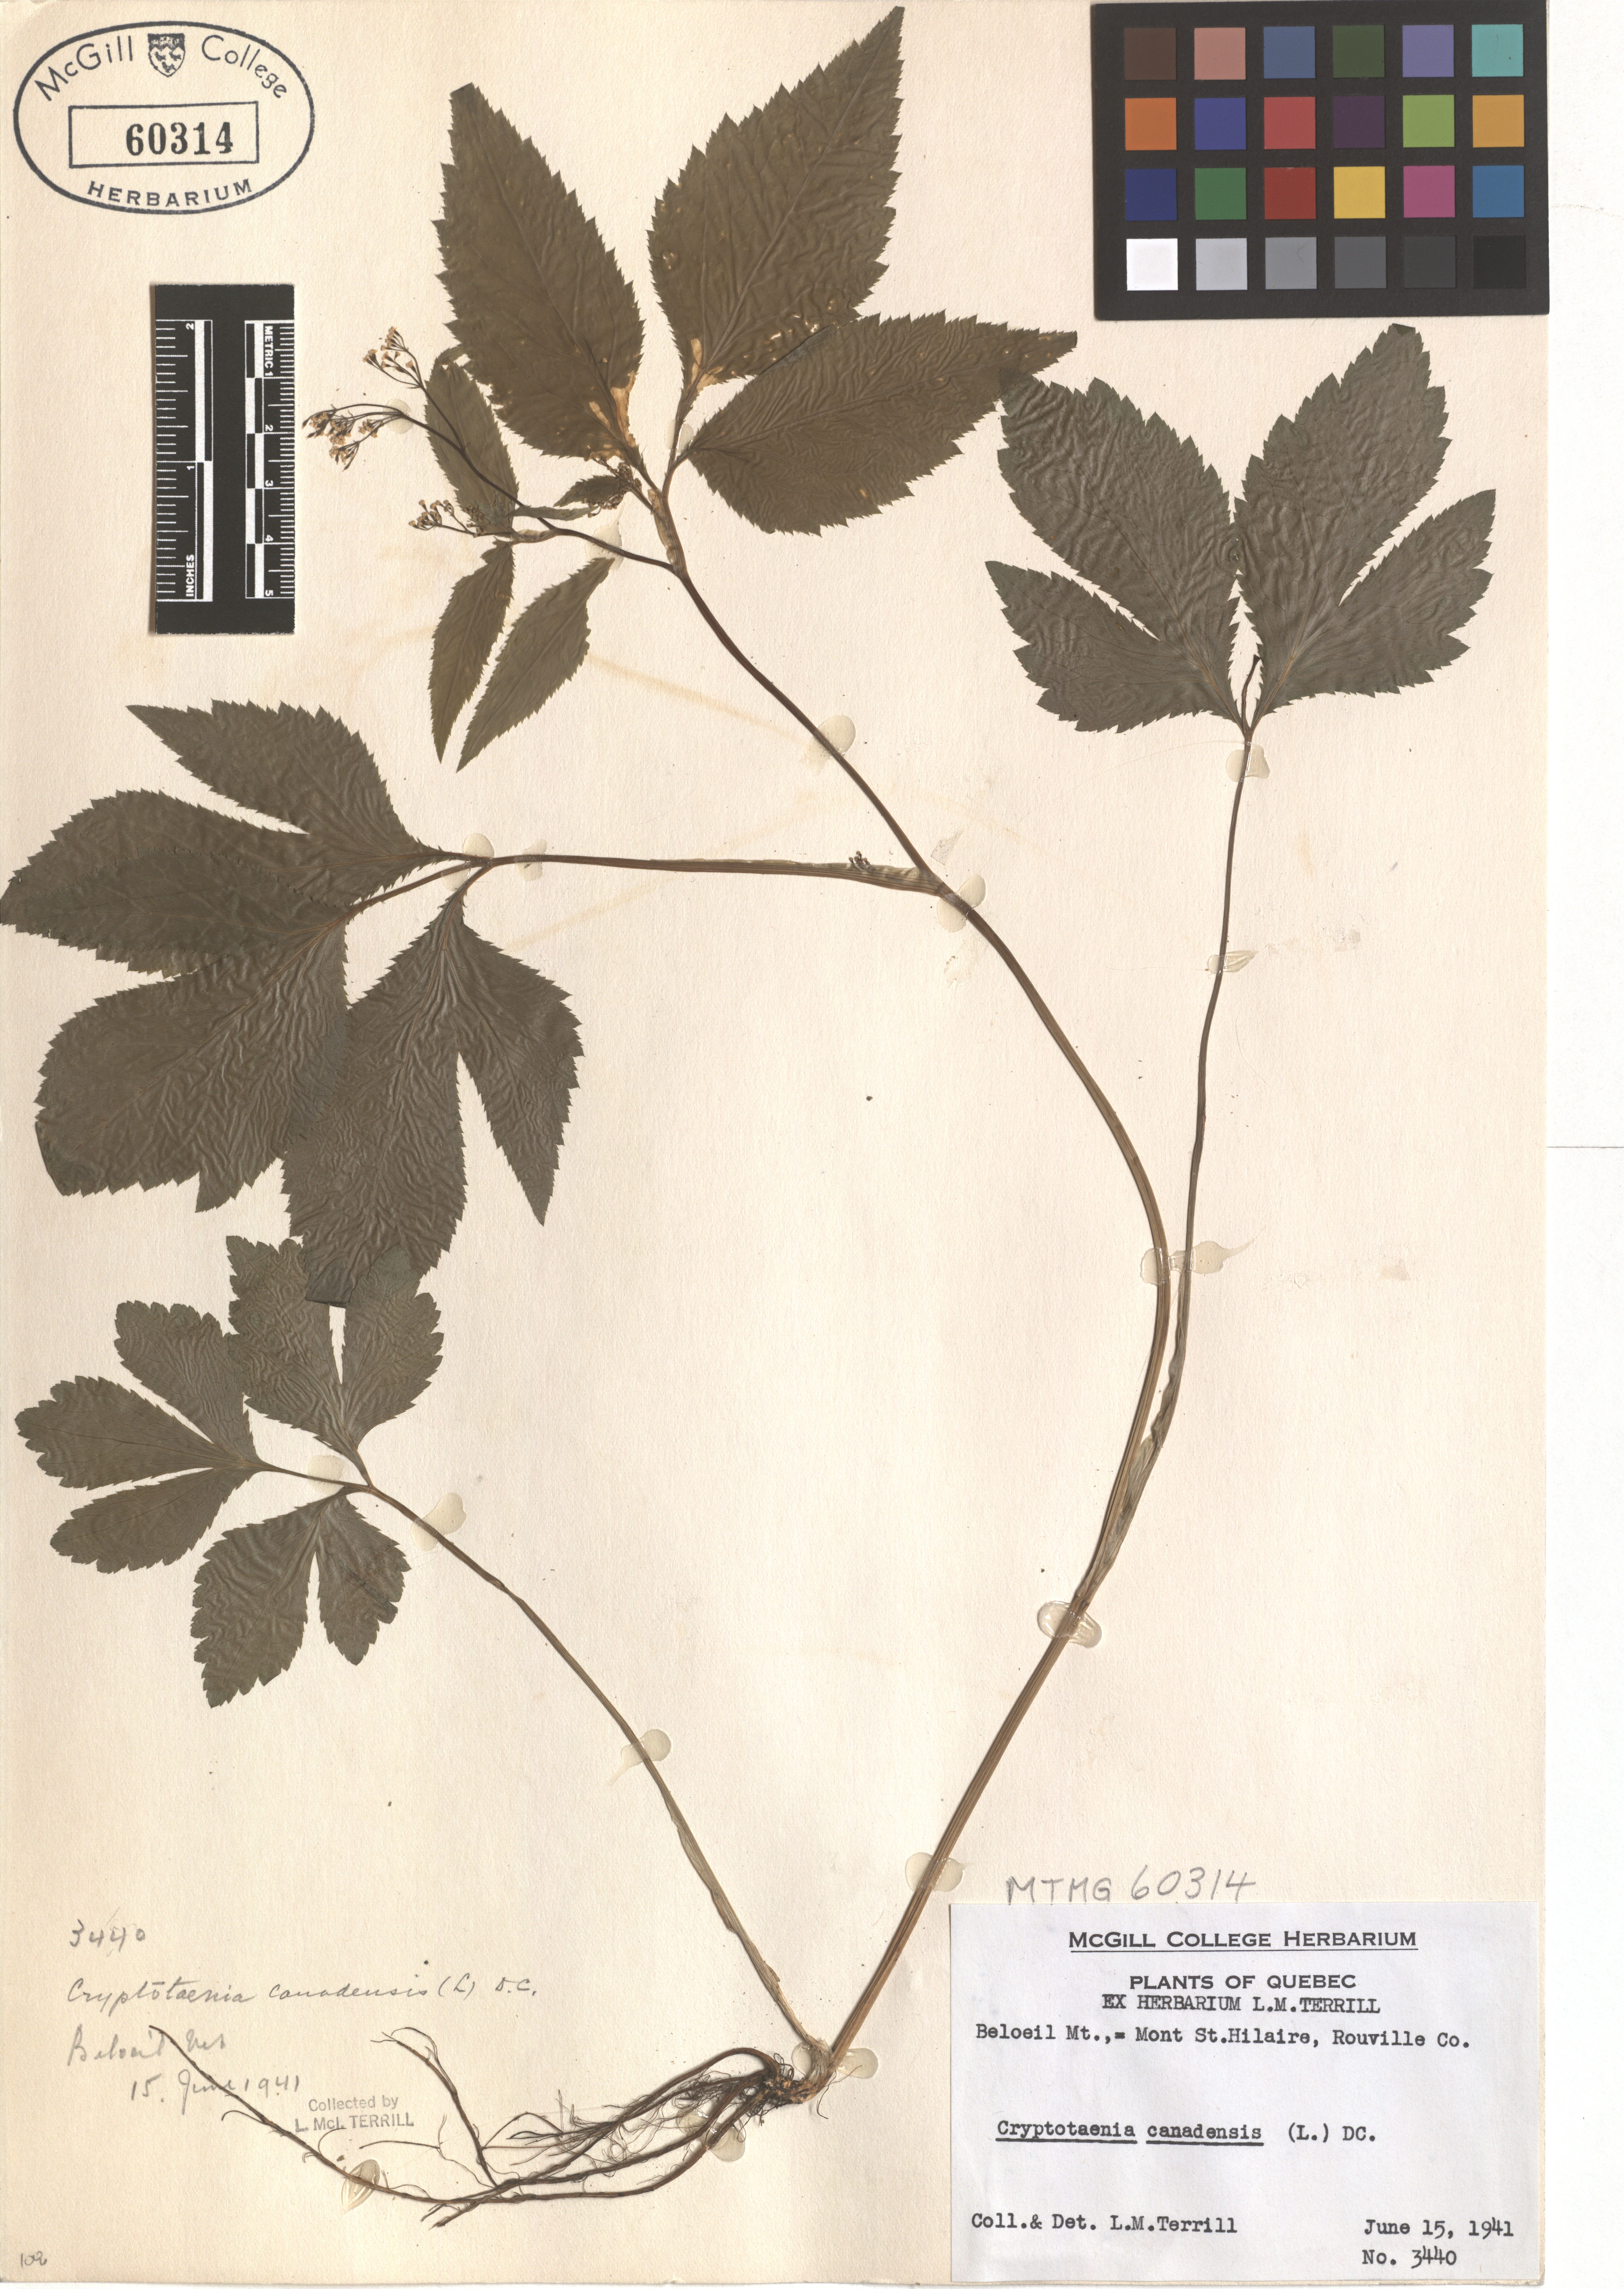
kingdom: Plantae
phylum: Tracheophyta
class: Magnoliopsida
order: Apiales
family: Apiaceae
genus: Cryptotaenia
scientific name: Cryptotaenia canadensis
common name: Honewort
